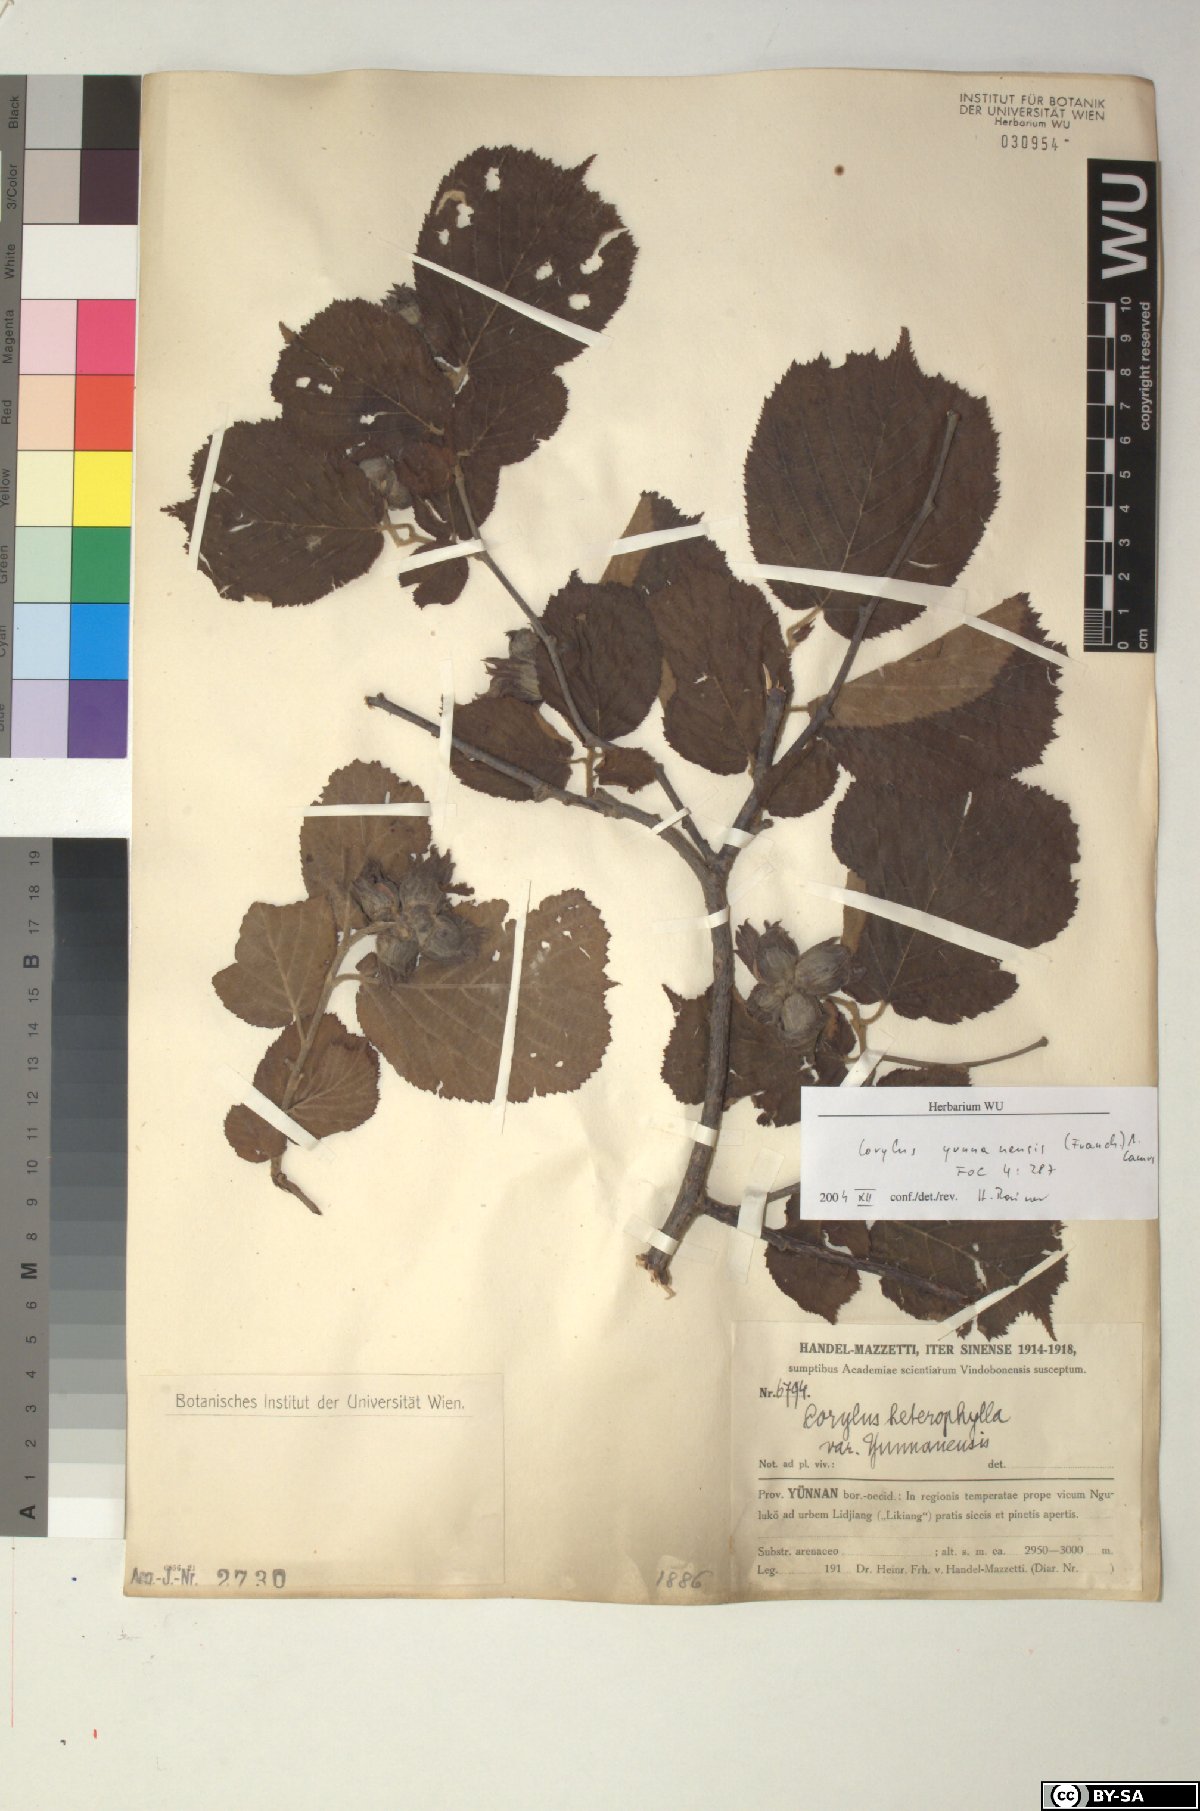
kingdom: Plantae
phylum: Tracheophyta
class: Magnoliopsida
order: Fagales
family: Betulaceae
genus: Corylus
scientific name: Corylus yunnanensis
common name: Yunnan hazel
